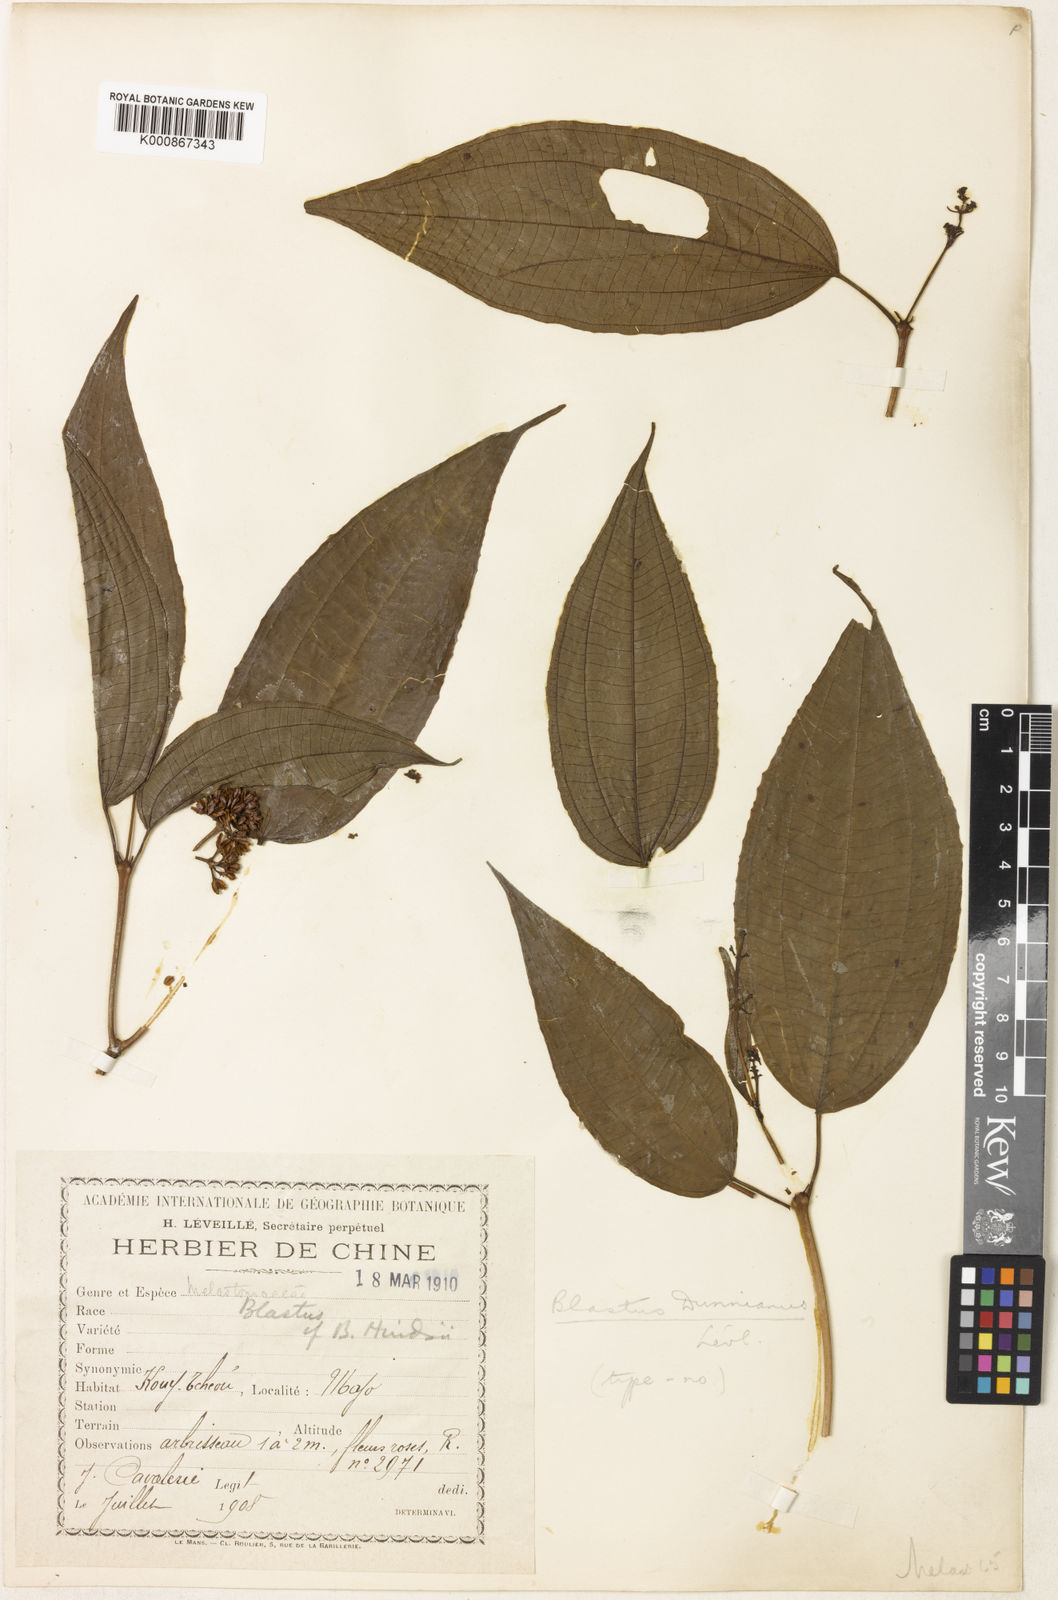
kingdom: Plantae
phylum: Tracheophyta
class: Magnoliopsida
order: Myrtales
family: Melastomataceae
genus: Blastus
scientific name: Blastus
